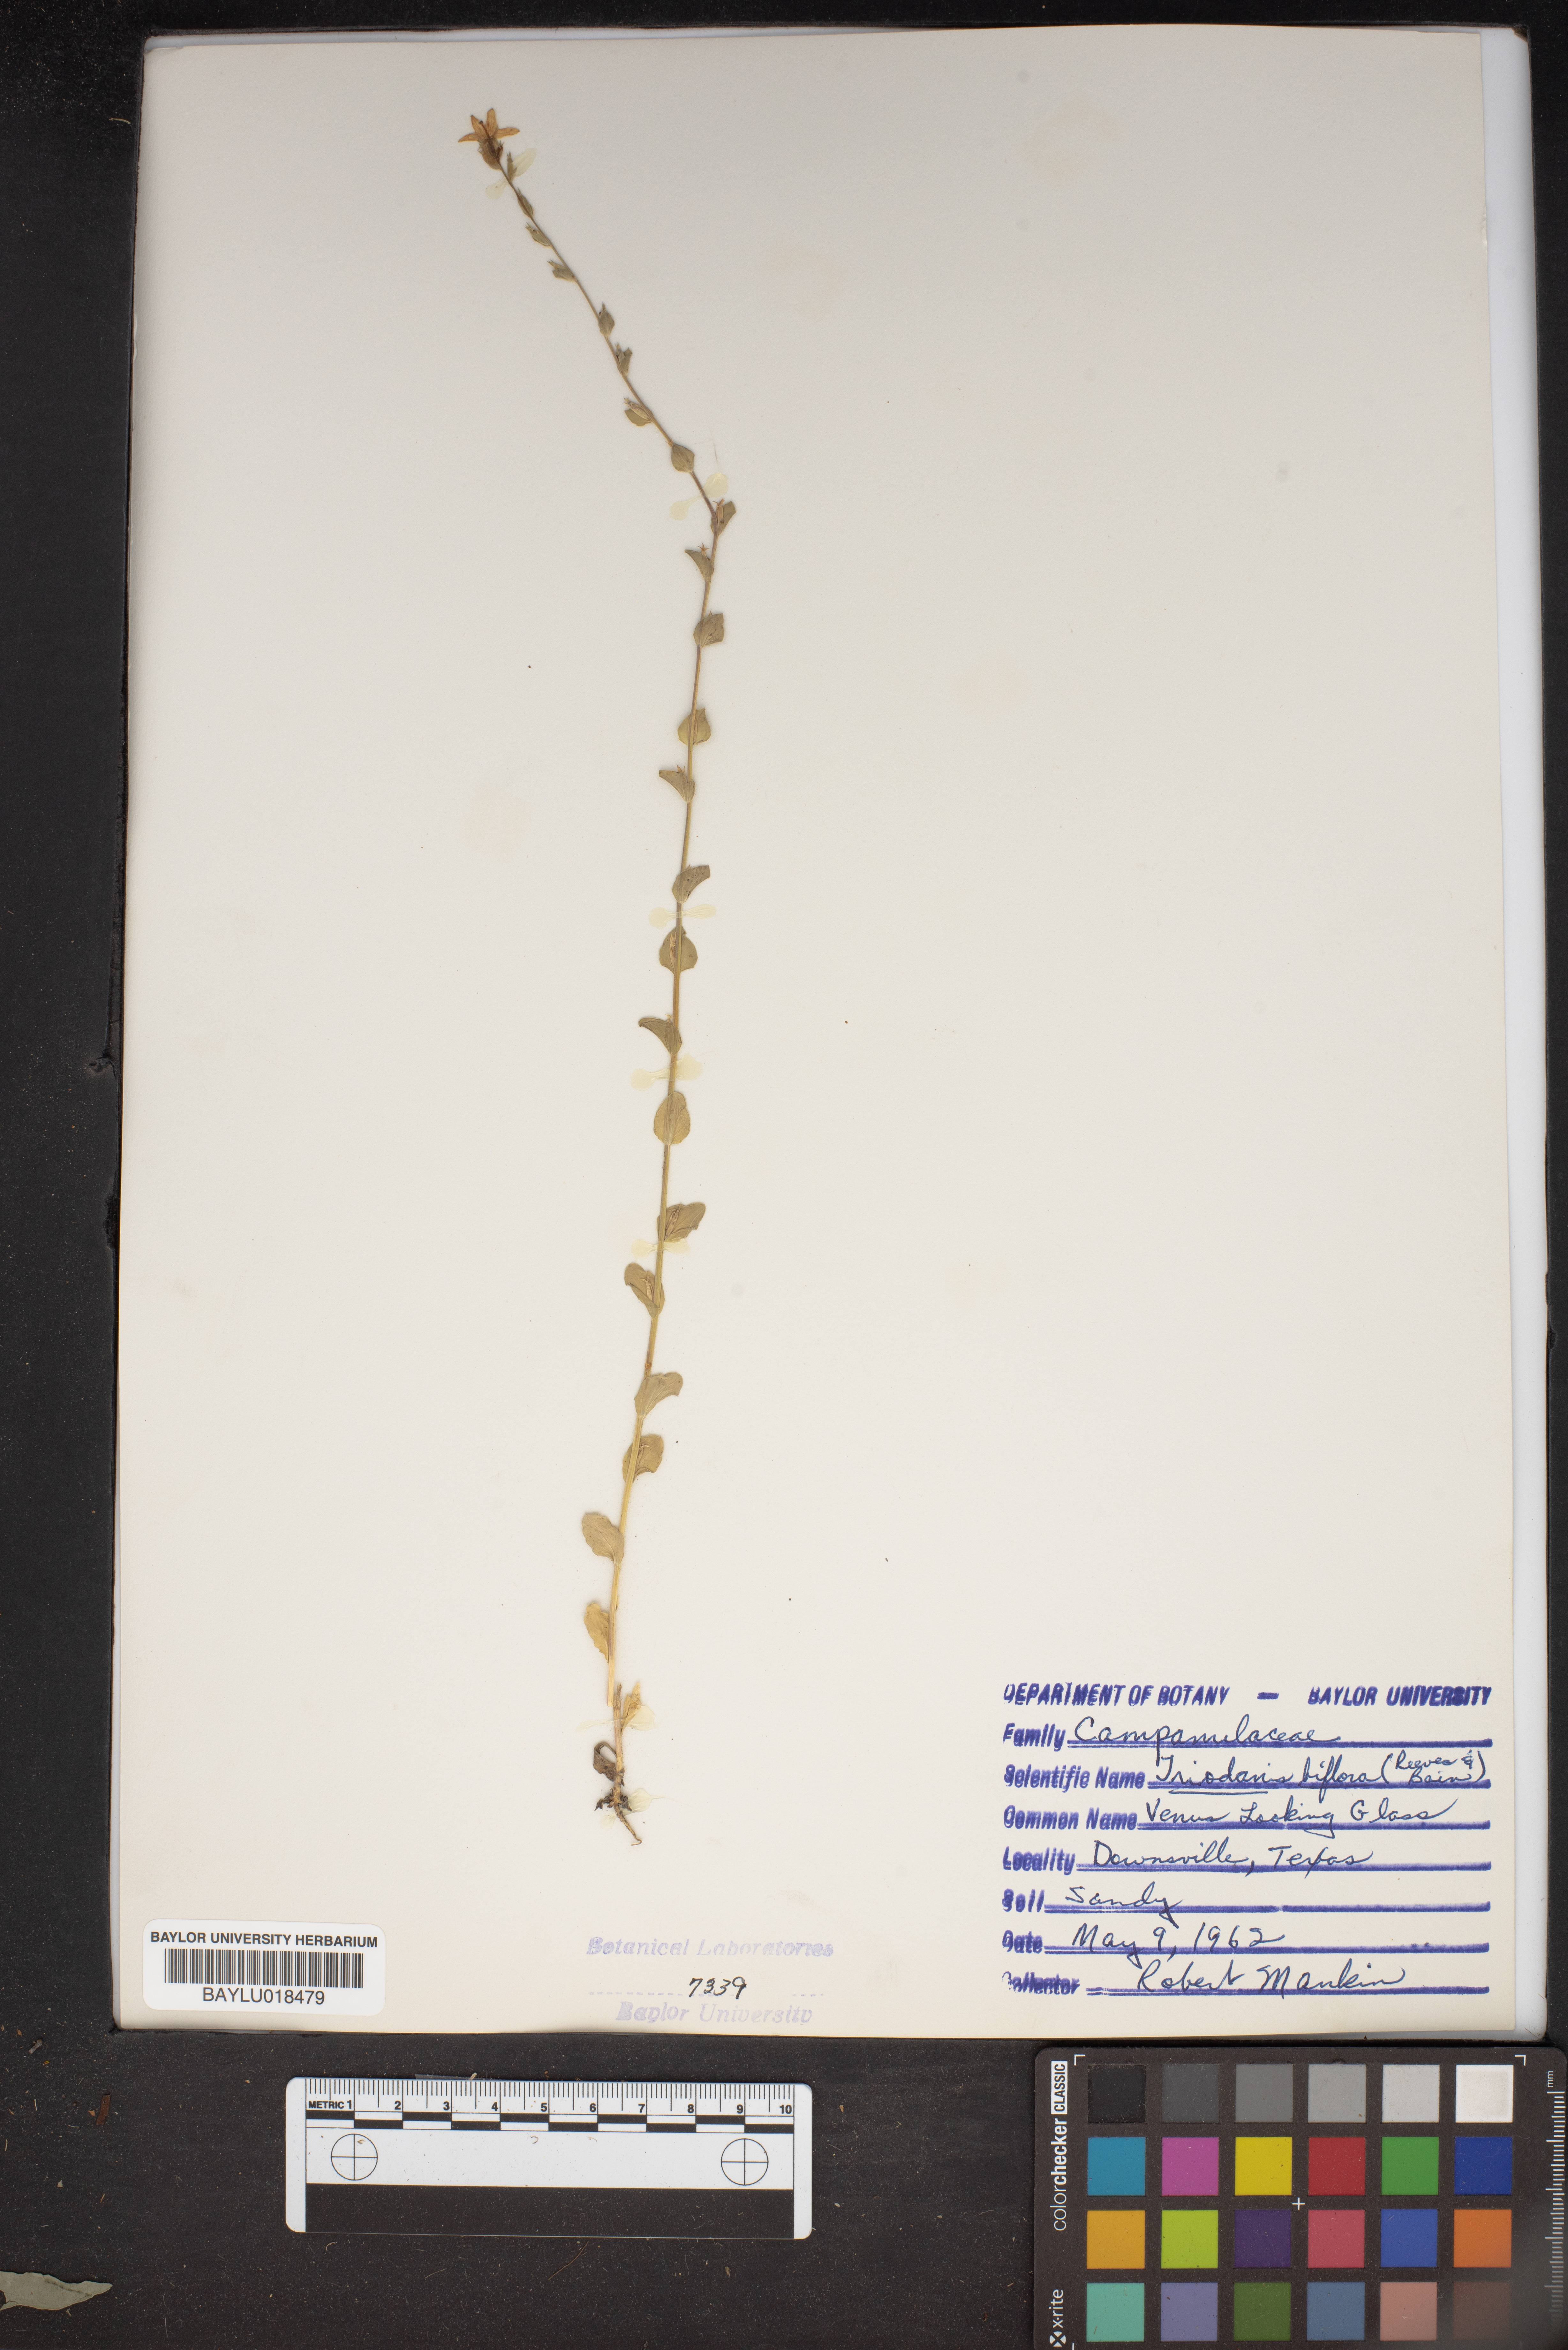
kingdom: Plantae
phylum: Tracheophyta
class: Magnoliopsida
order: Asterales
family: Campanulaceae
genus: Triodanis
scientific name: Triodanis perfoliata
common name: Clasping venus' looking-glass
